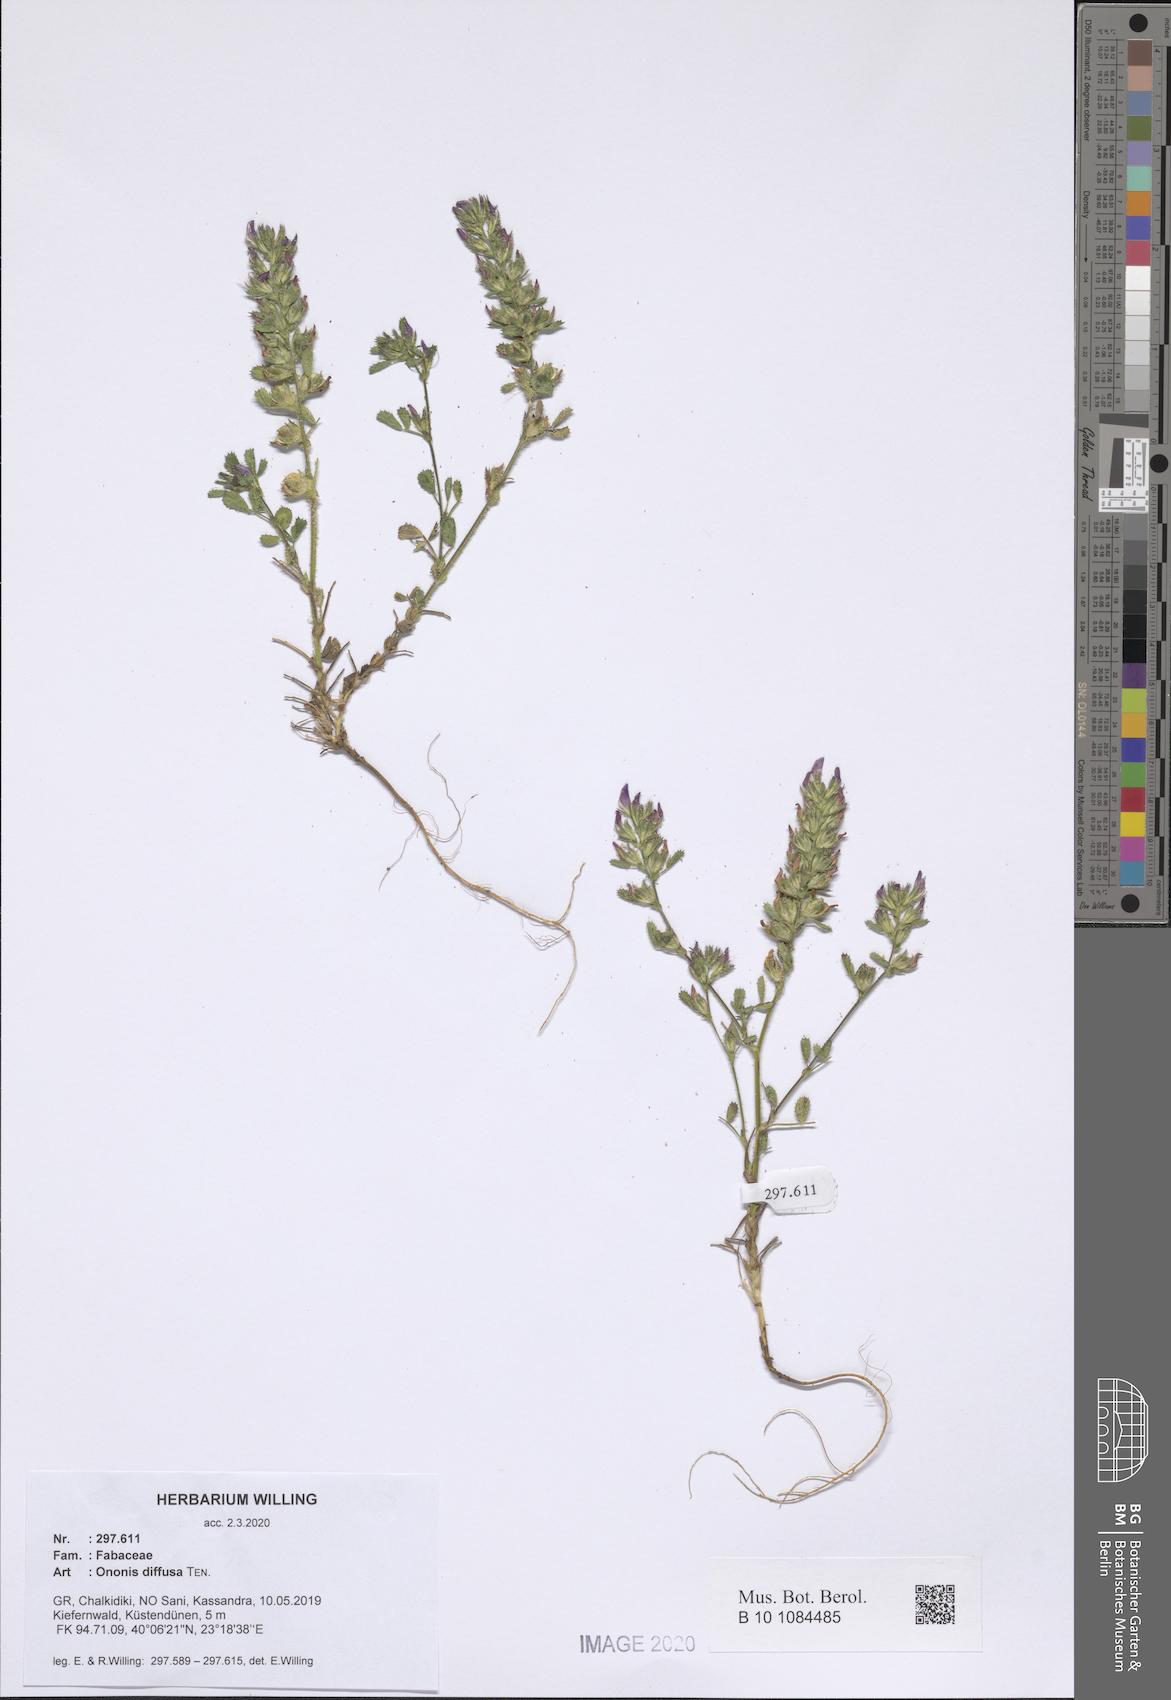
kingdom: Plantae
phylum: Tracheophyta
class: Magnoliopsida
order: Fabales
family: Fabaceae
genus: Ononis
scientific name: Ononis diffusa
